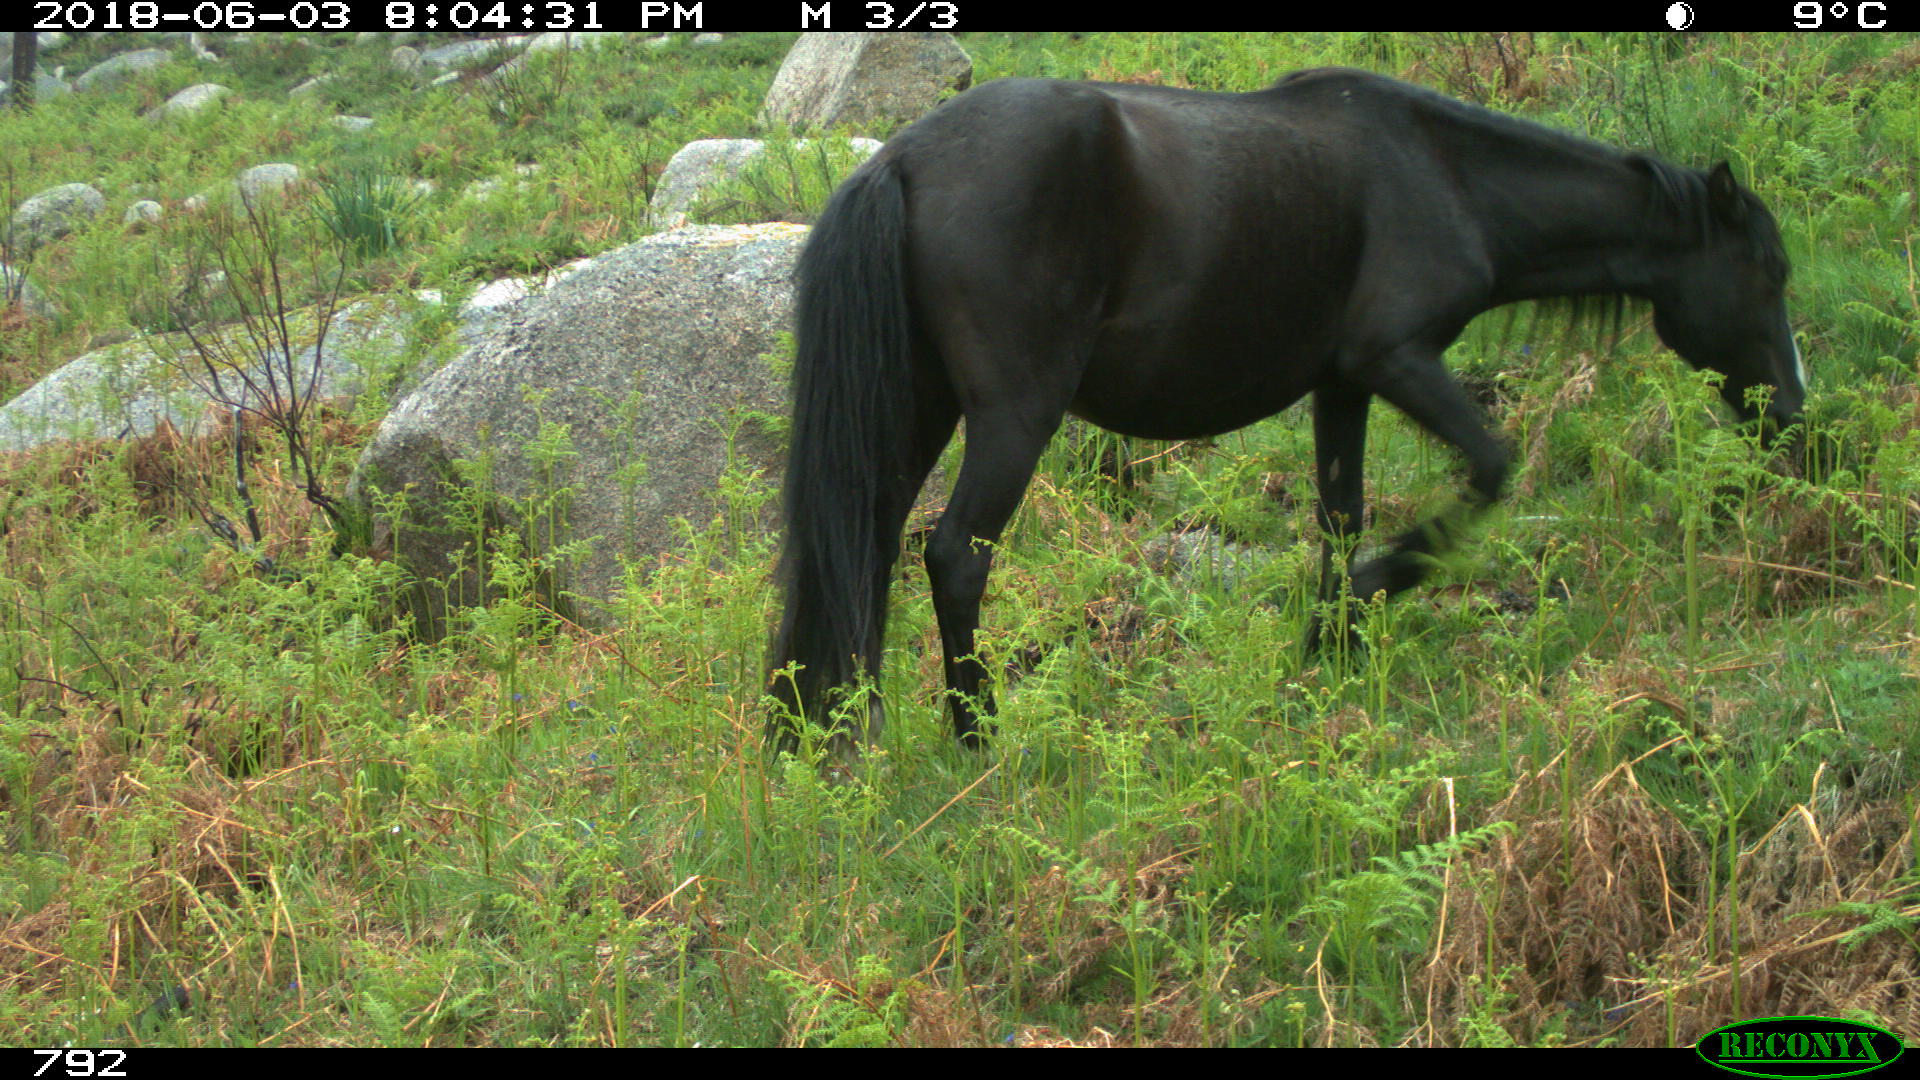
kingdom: Animalia
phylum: Chordata
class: Mammalia
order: Perissodactyla
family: Equidae
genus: Equus
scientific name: Equus caballus
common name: Horse
